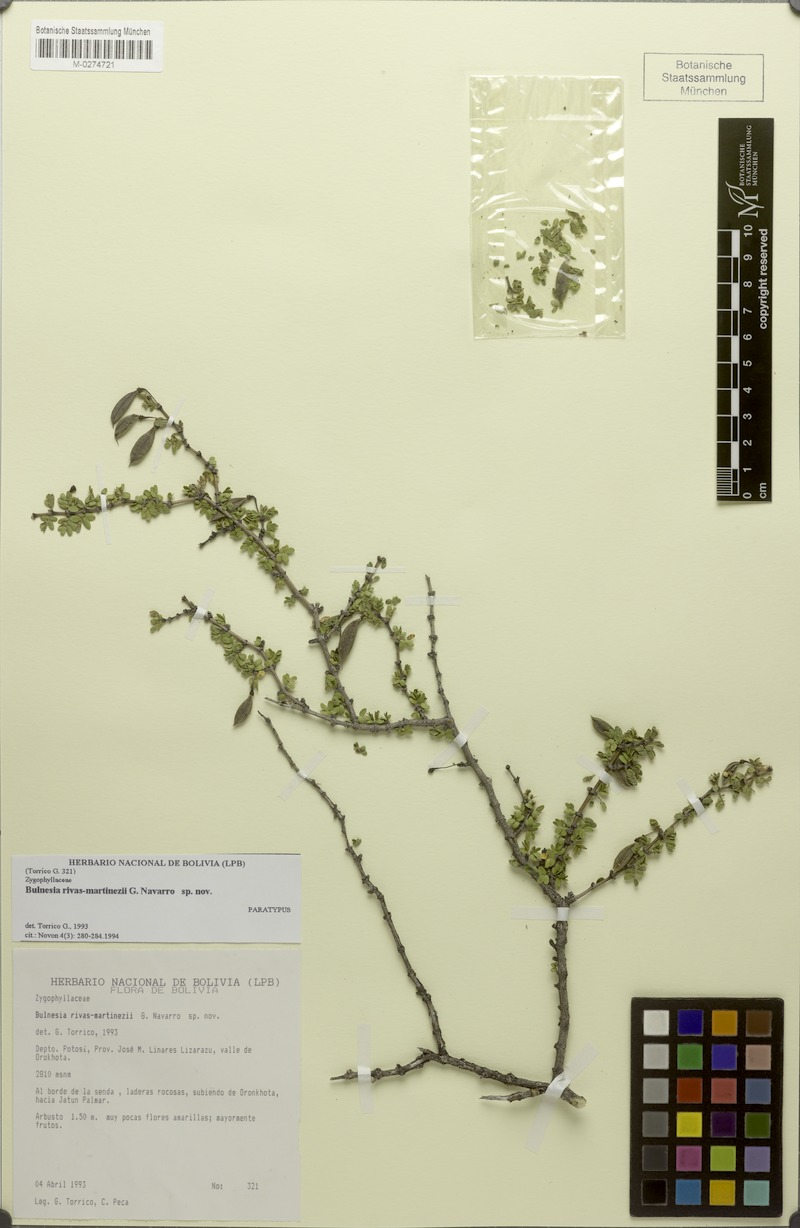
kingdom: Plantae
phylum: Tracheophyta
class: Magnoliopsida
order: Zygophyllales
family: Zygophyllaceae
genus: Bulnesia
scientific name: Bulnesia rivas-martinezii
